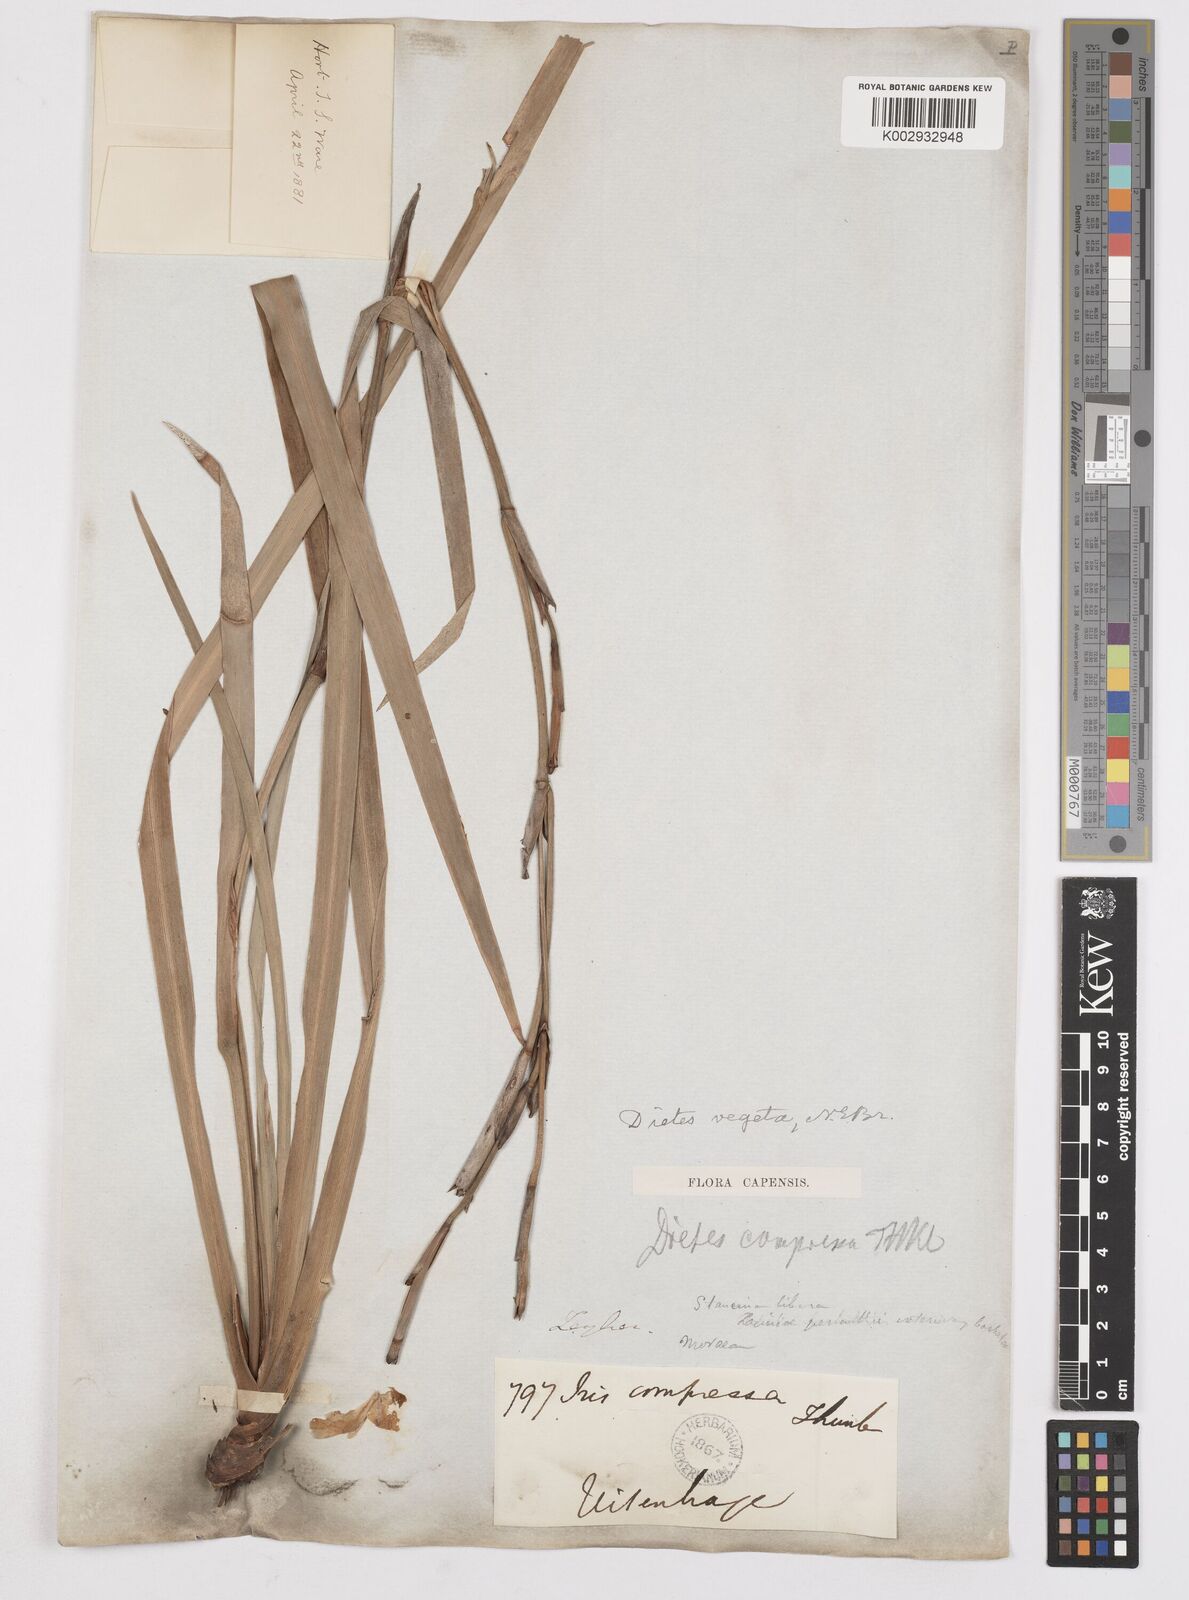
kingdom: Plantae
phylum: Tracheophyta
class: Liliopsida
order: Asparagales
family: Iridaceae
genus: Dietes
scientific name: Dietes iridioides
